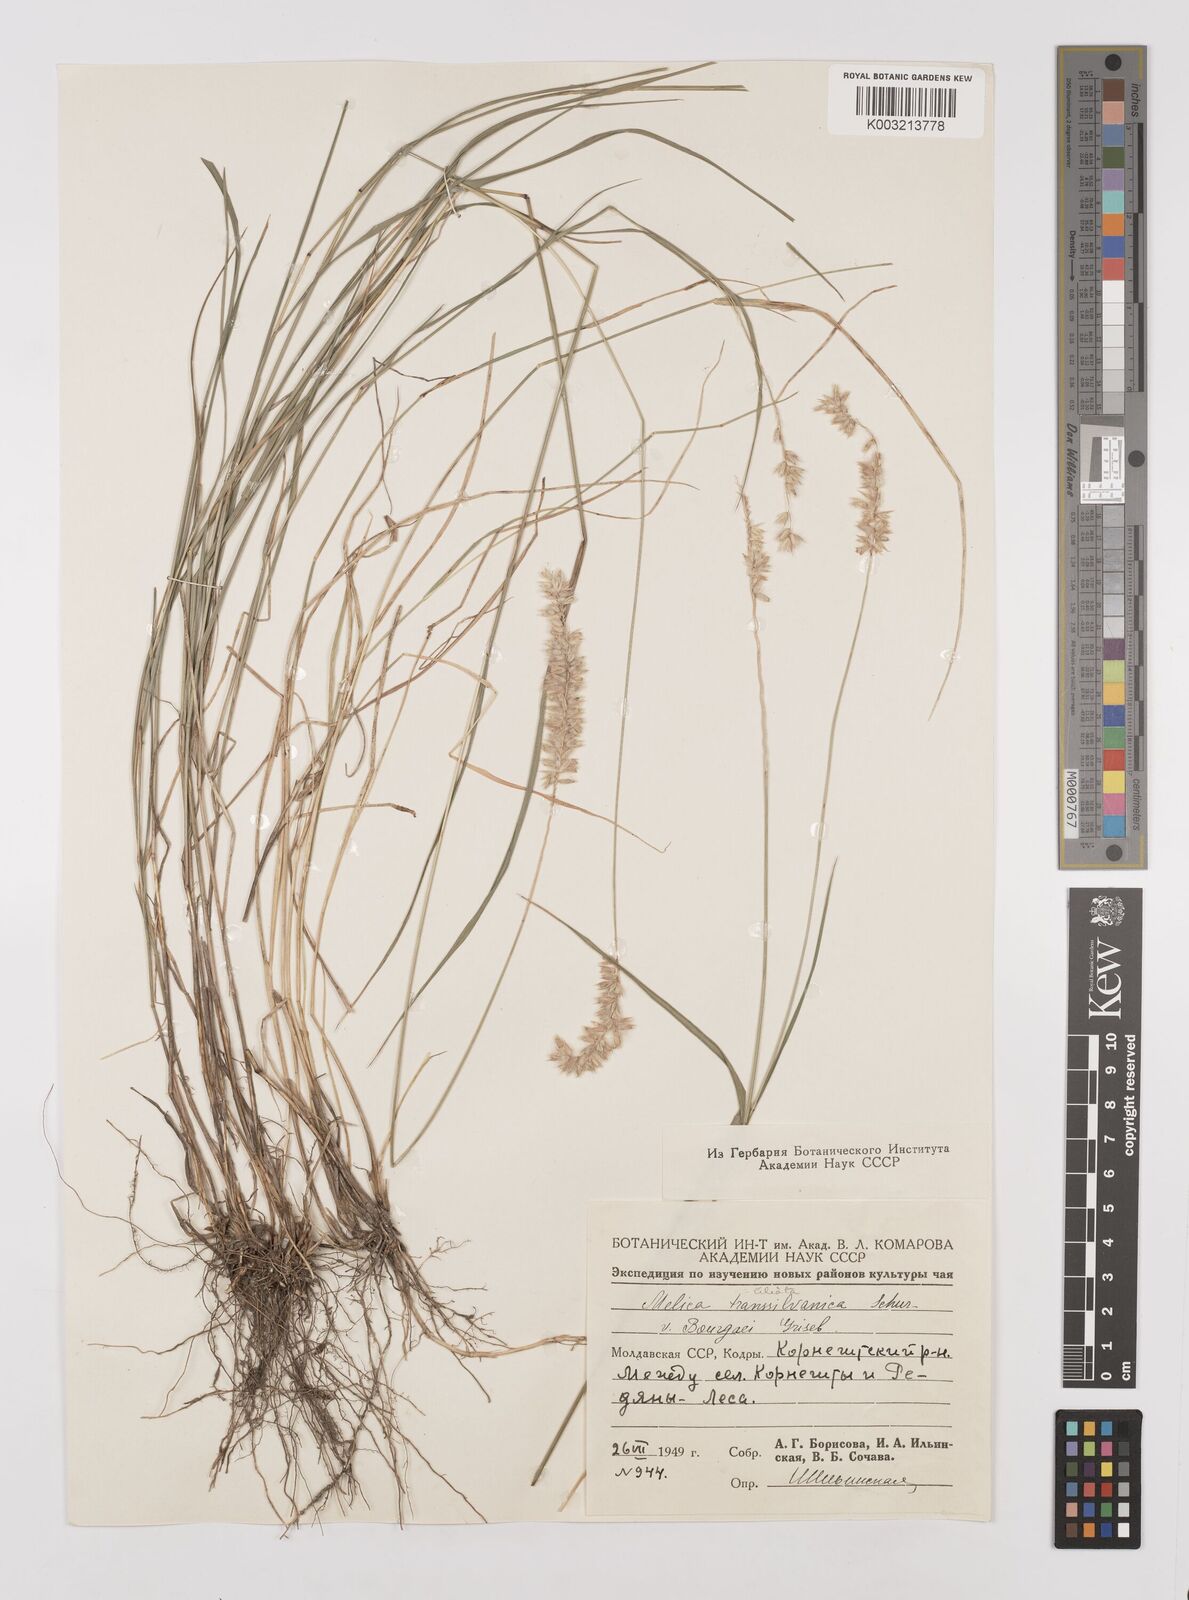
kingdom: Plantae
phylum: Tracheophyta
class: Liliopsida
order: Poales
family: Poaceae
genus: Melica
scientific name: Melica transsilvanica
